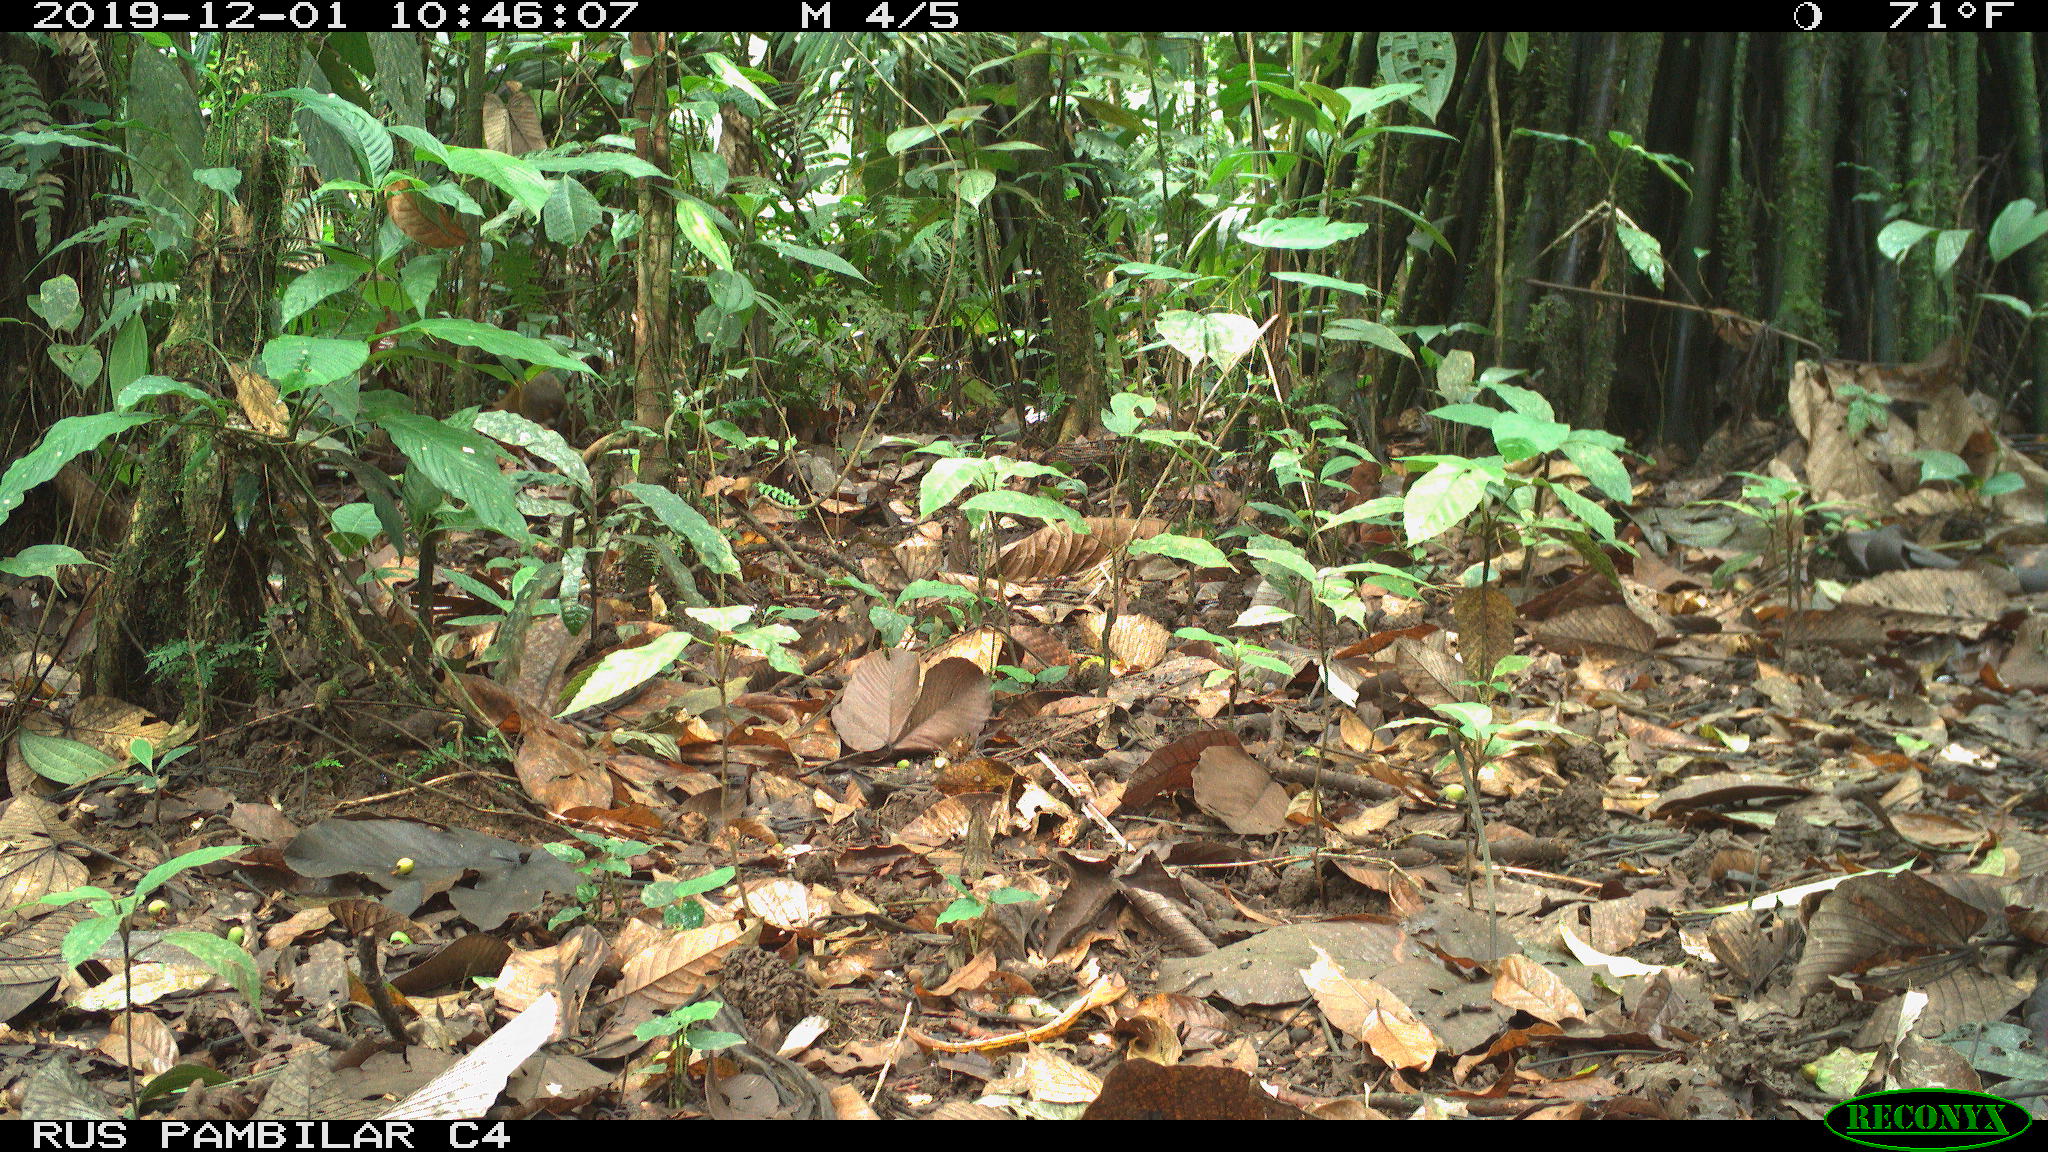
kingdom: Animalia
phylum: Chordata
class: Mammalia
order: Rodentia
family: Dasyproctidae
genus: Dasyprocta
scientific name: Dasyprocta punctata
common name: Central american agouti
